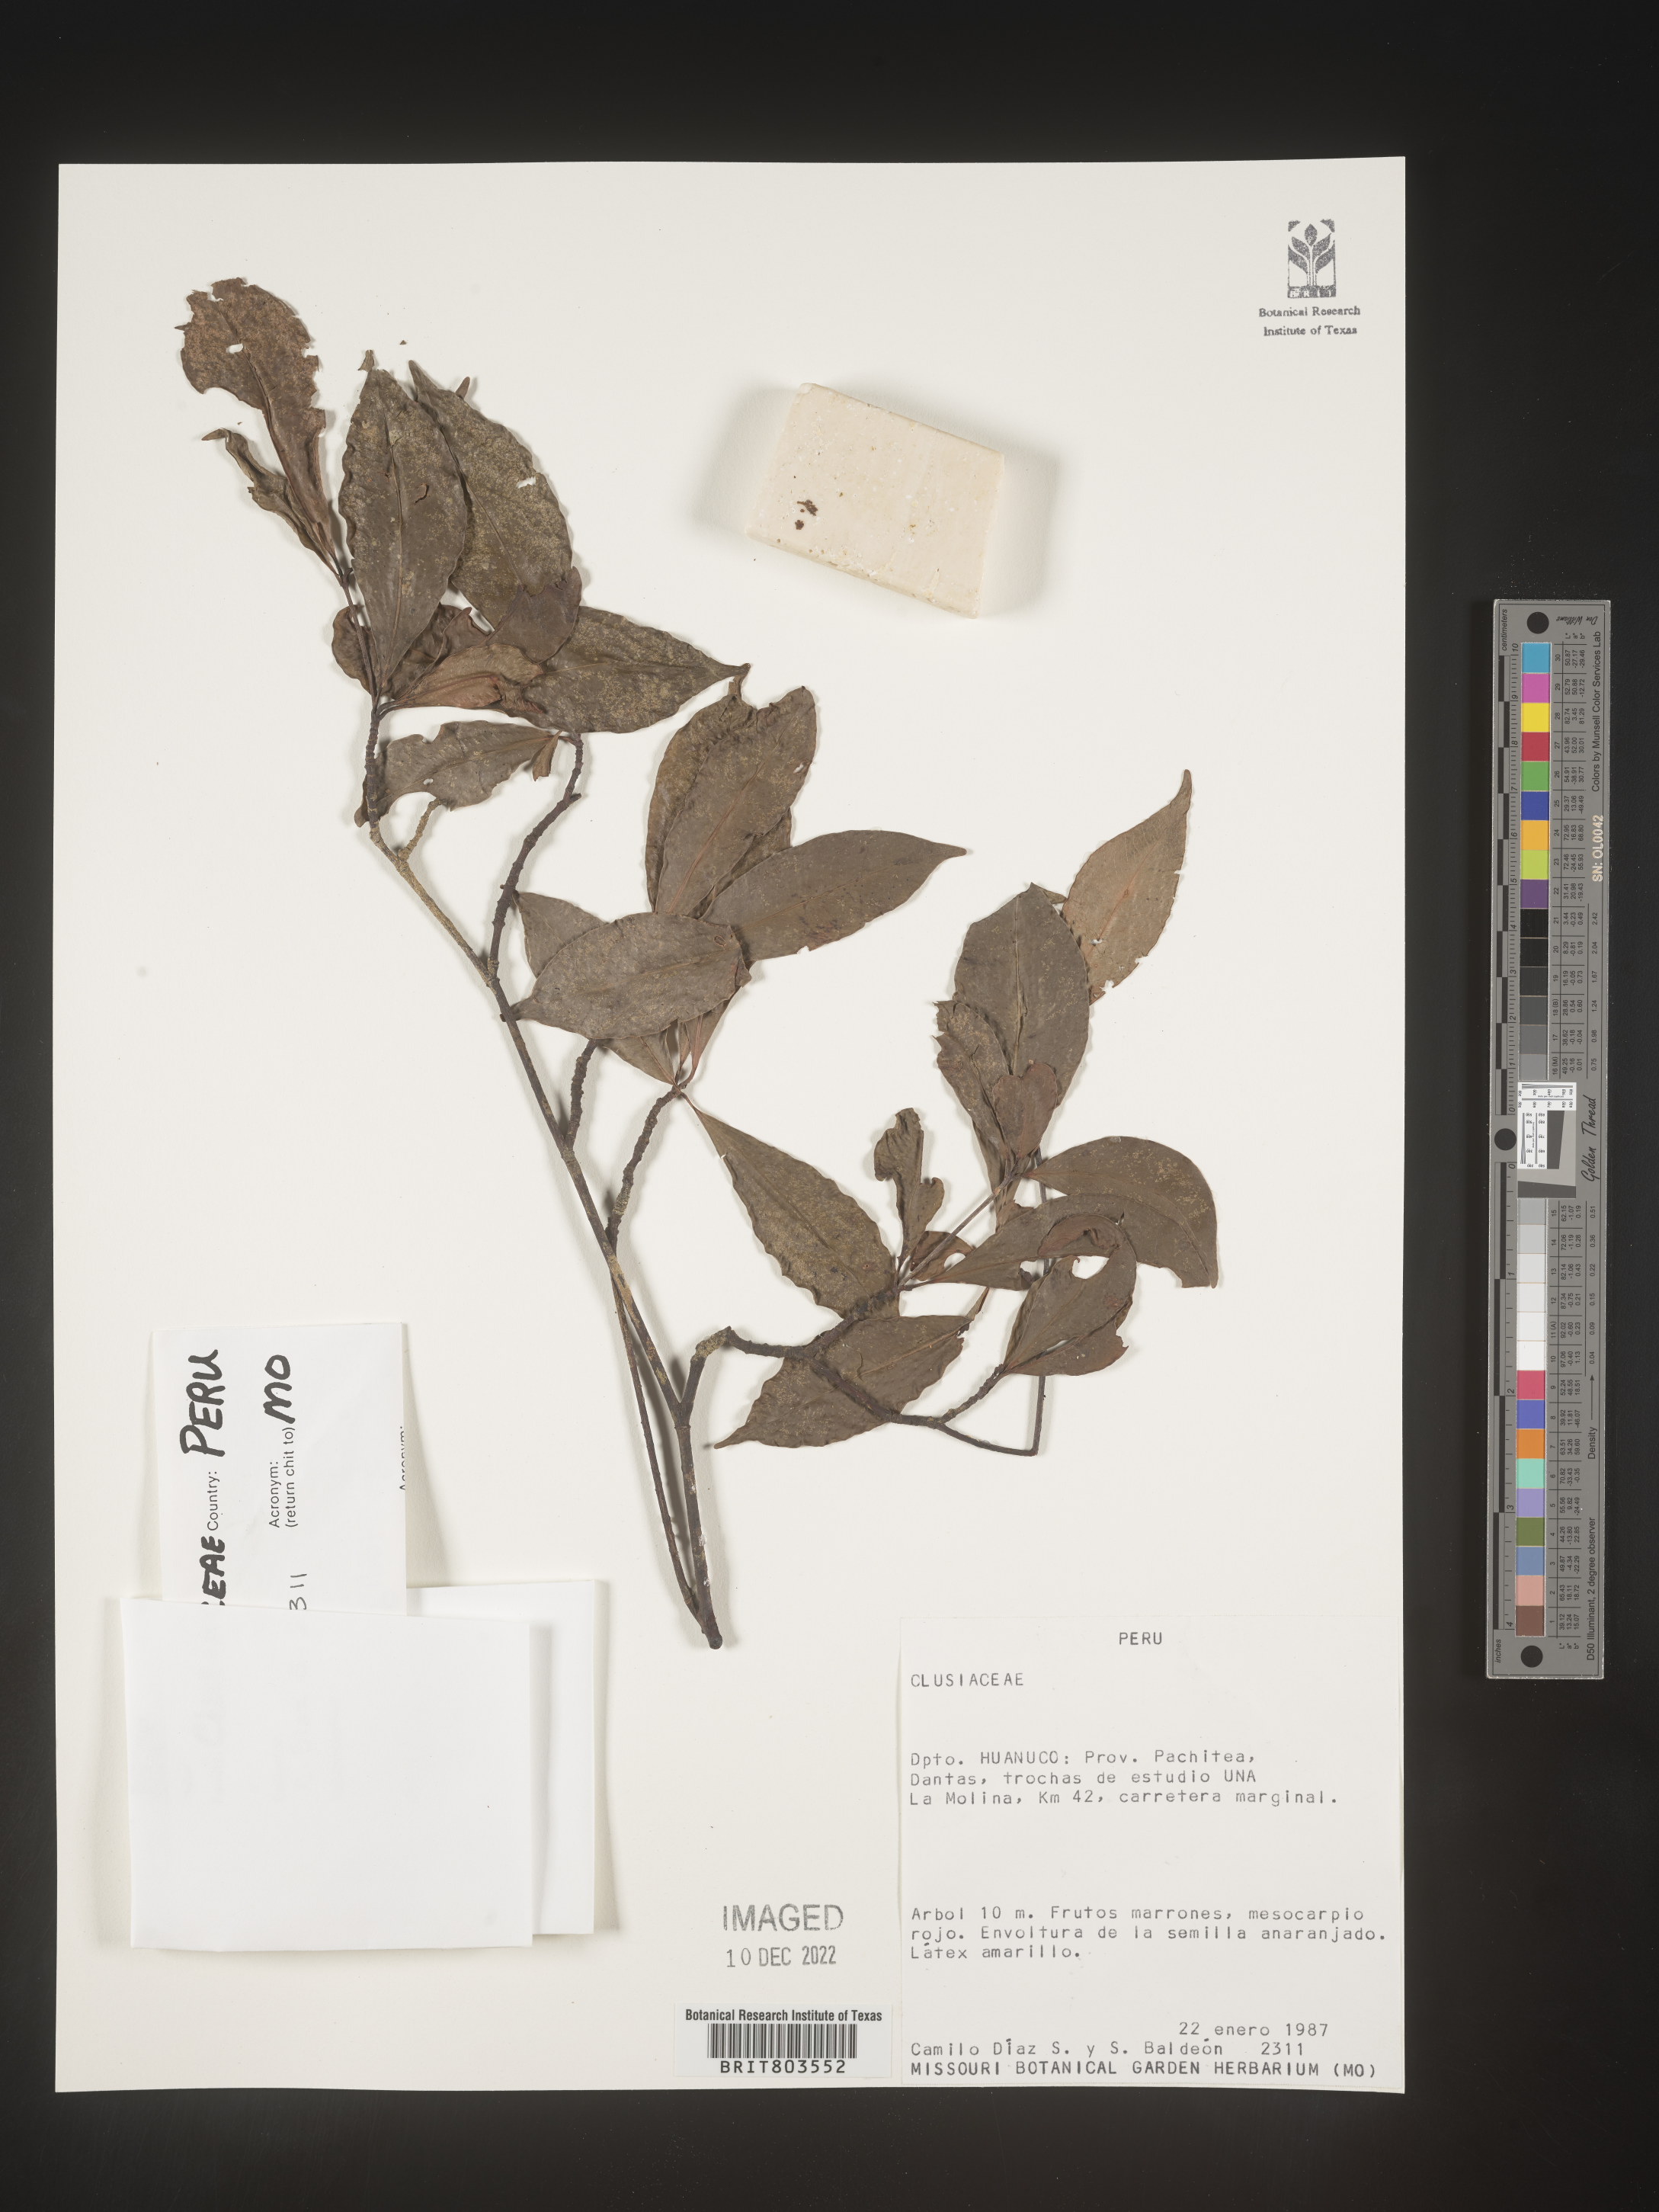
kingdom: Plantae
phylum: Tracheophyta
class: Magnoliopsida
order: Malpighiales
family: Clusiaceae
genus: Tovomita
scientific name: Tovomita
